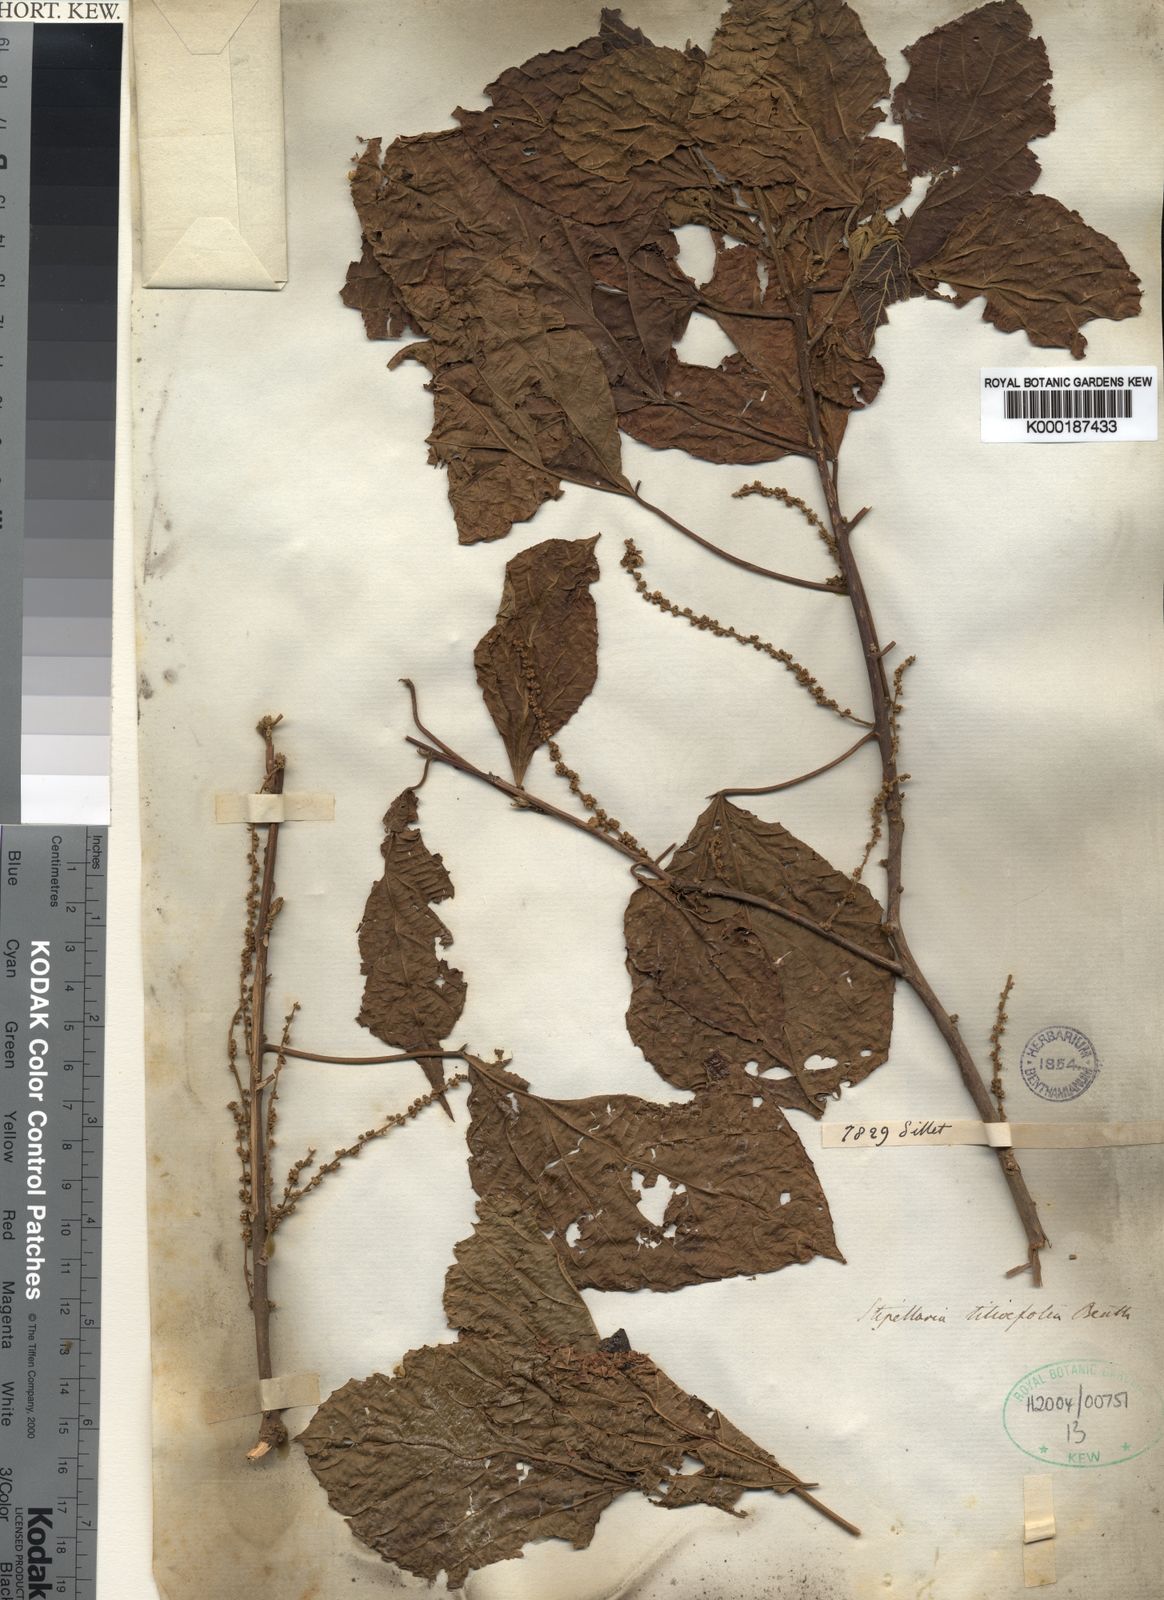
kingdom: Plantae
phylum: Tracheophyta
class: Magnoliopsida
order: Malpighiales
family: Euphorbiaceae
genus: Alchornea
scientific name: Alchornea
